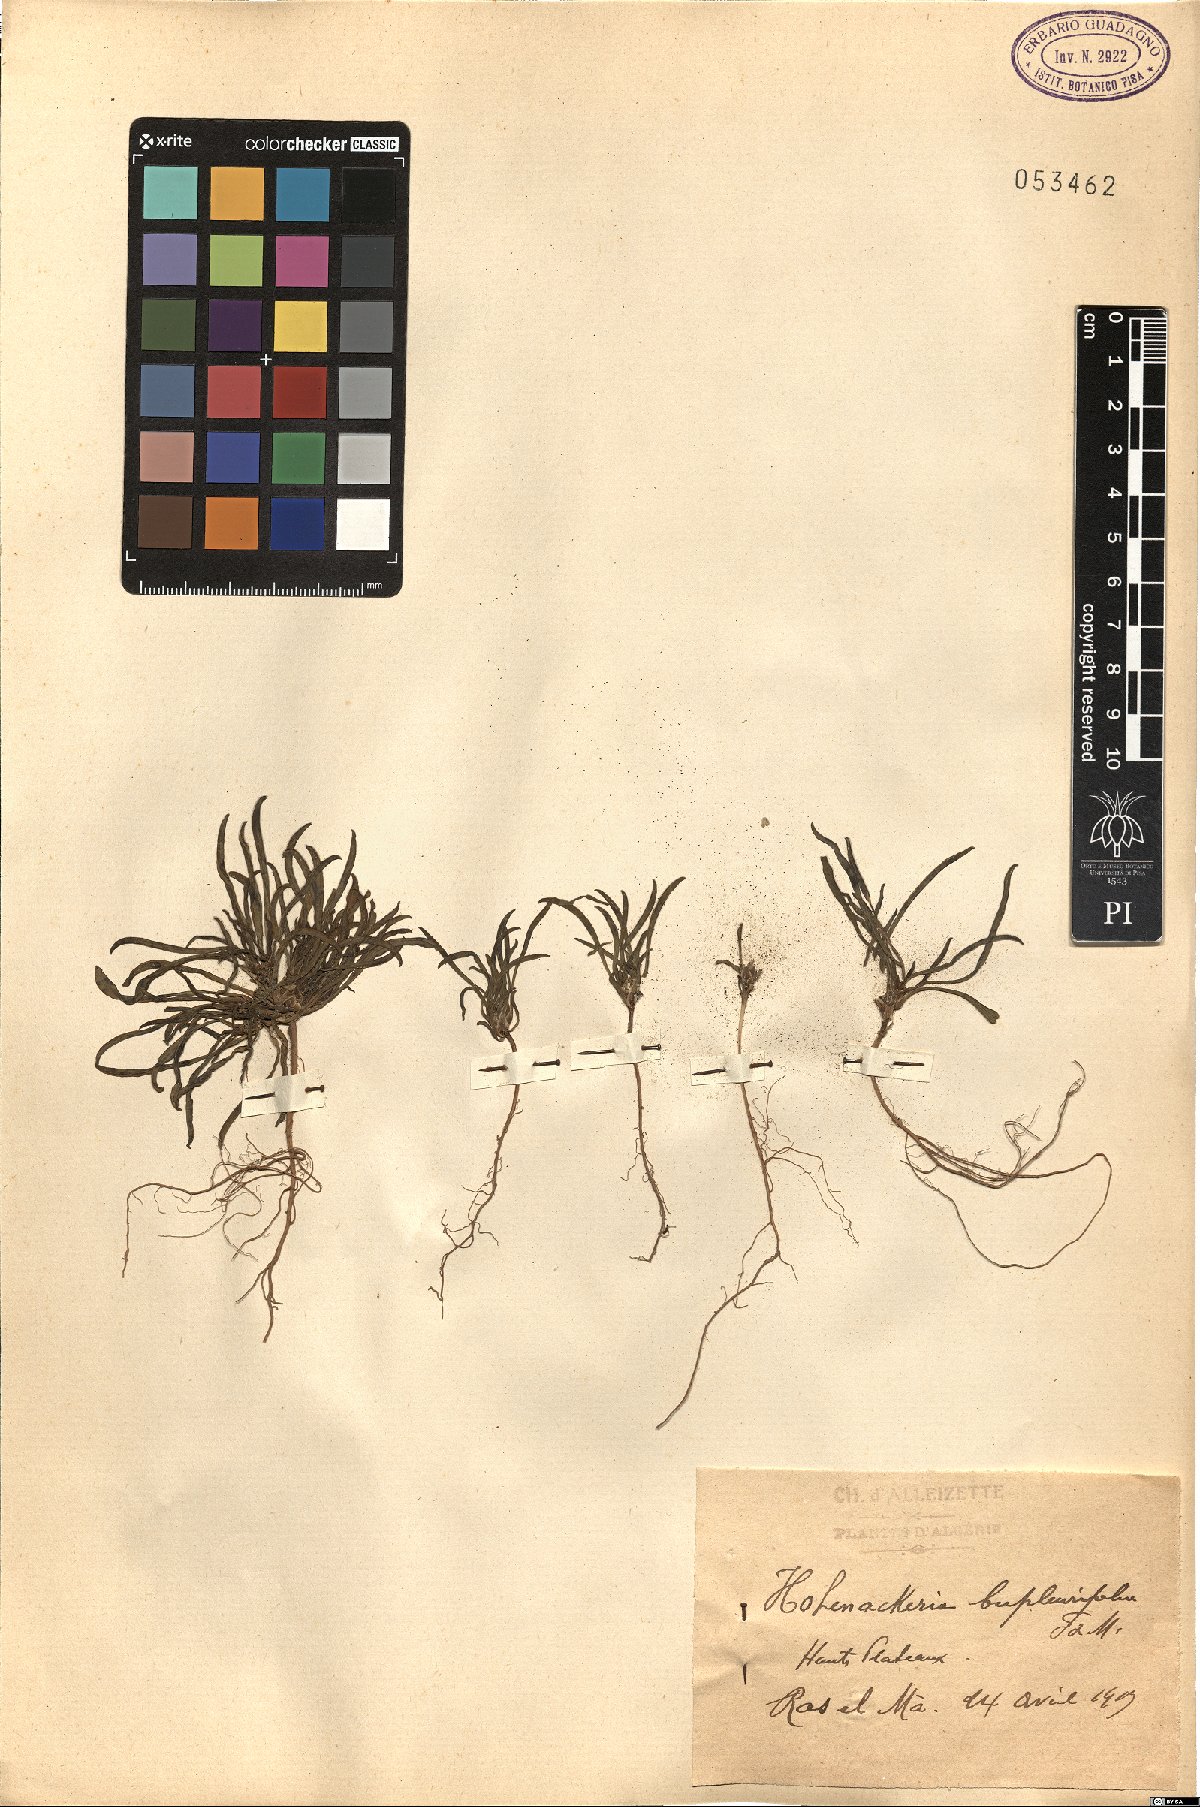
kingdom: Plantae
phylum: Tracheophyta
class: Magnoliopsida
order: Apiales
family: Apiaceae
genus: Hohenackeria
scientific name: Hohenackeria exscapa
